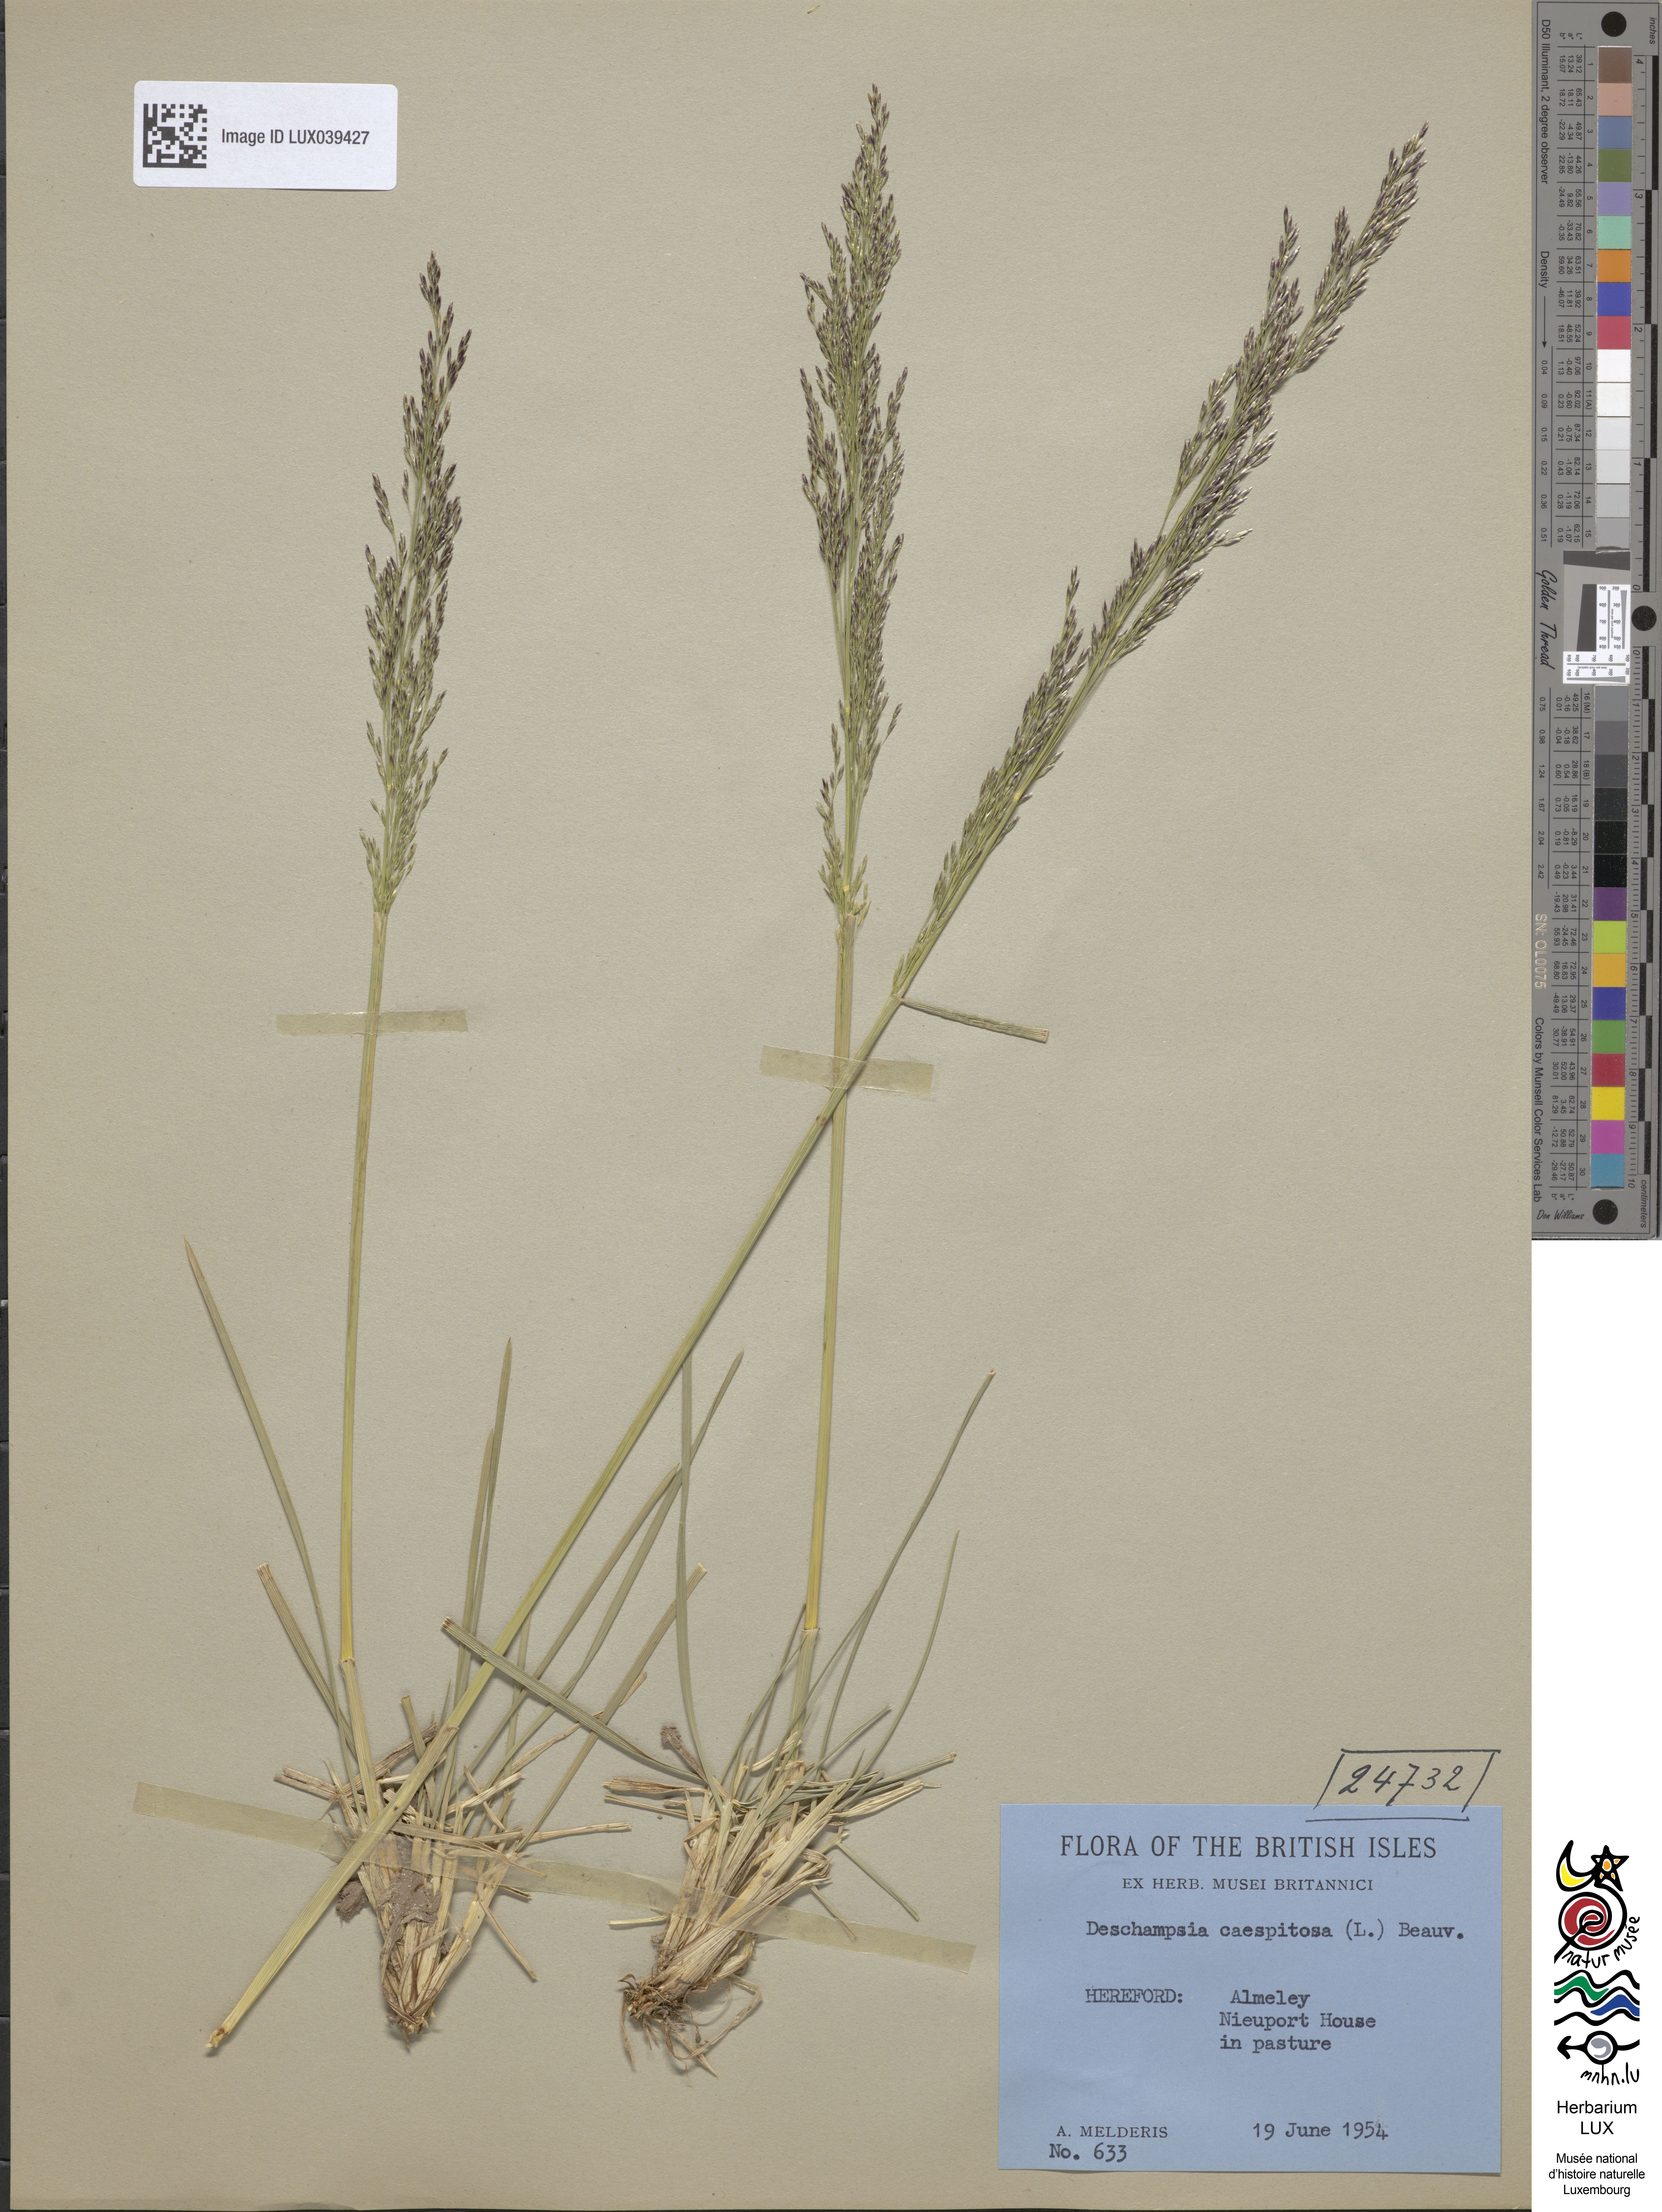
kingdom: Plantae
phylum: Tracheophyta
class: Liliopsida
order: Poales
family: Poaceae
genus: Deschampsia
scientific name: Deschampsia cespitosa
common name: Tufted hair-grass
